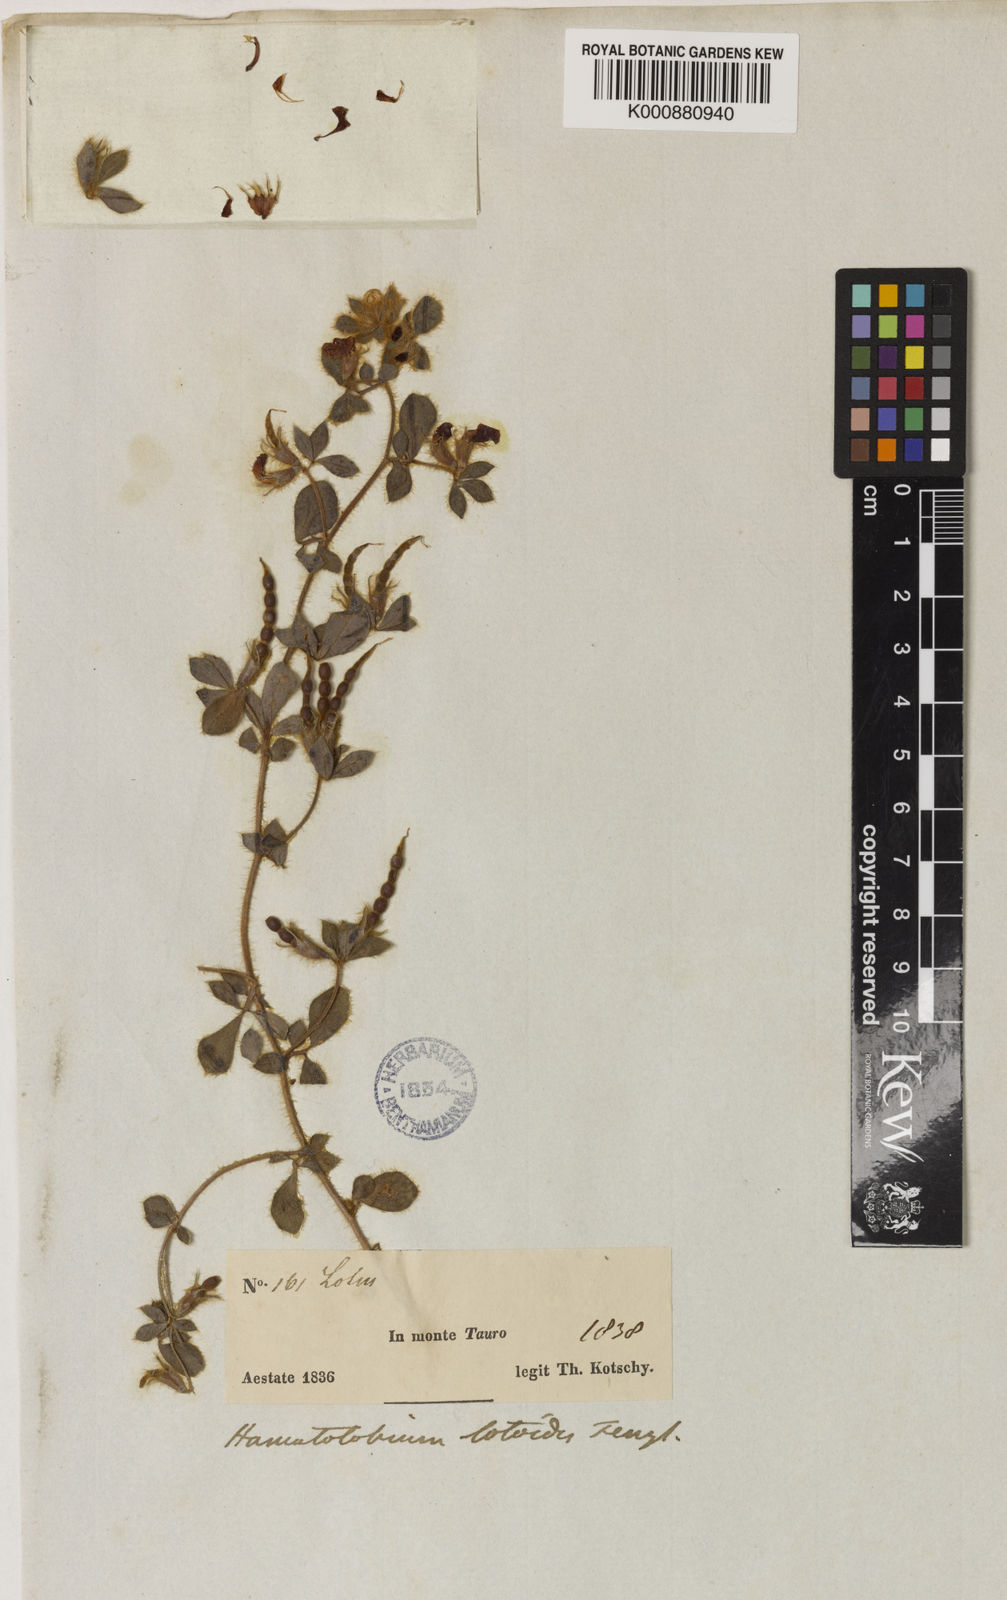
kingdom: Plantae
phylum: Tracheophyta
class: Magnoliopsida
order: Fabales
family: Fabaceae
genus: Hammatolobium
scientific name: Hammatolobium lotoides
